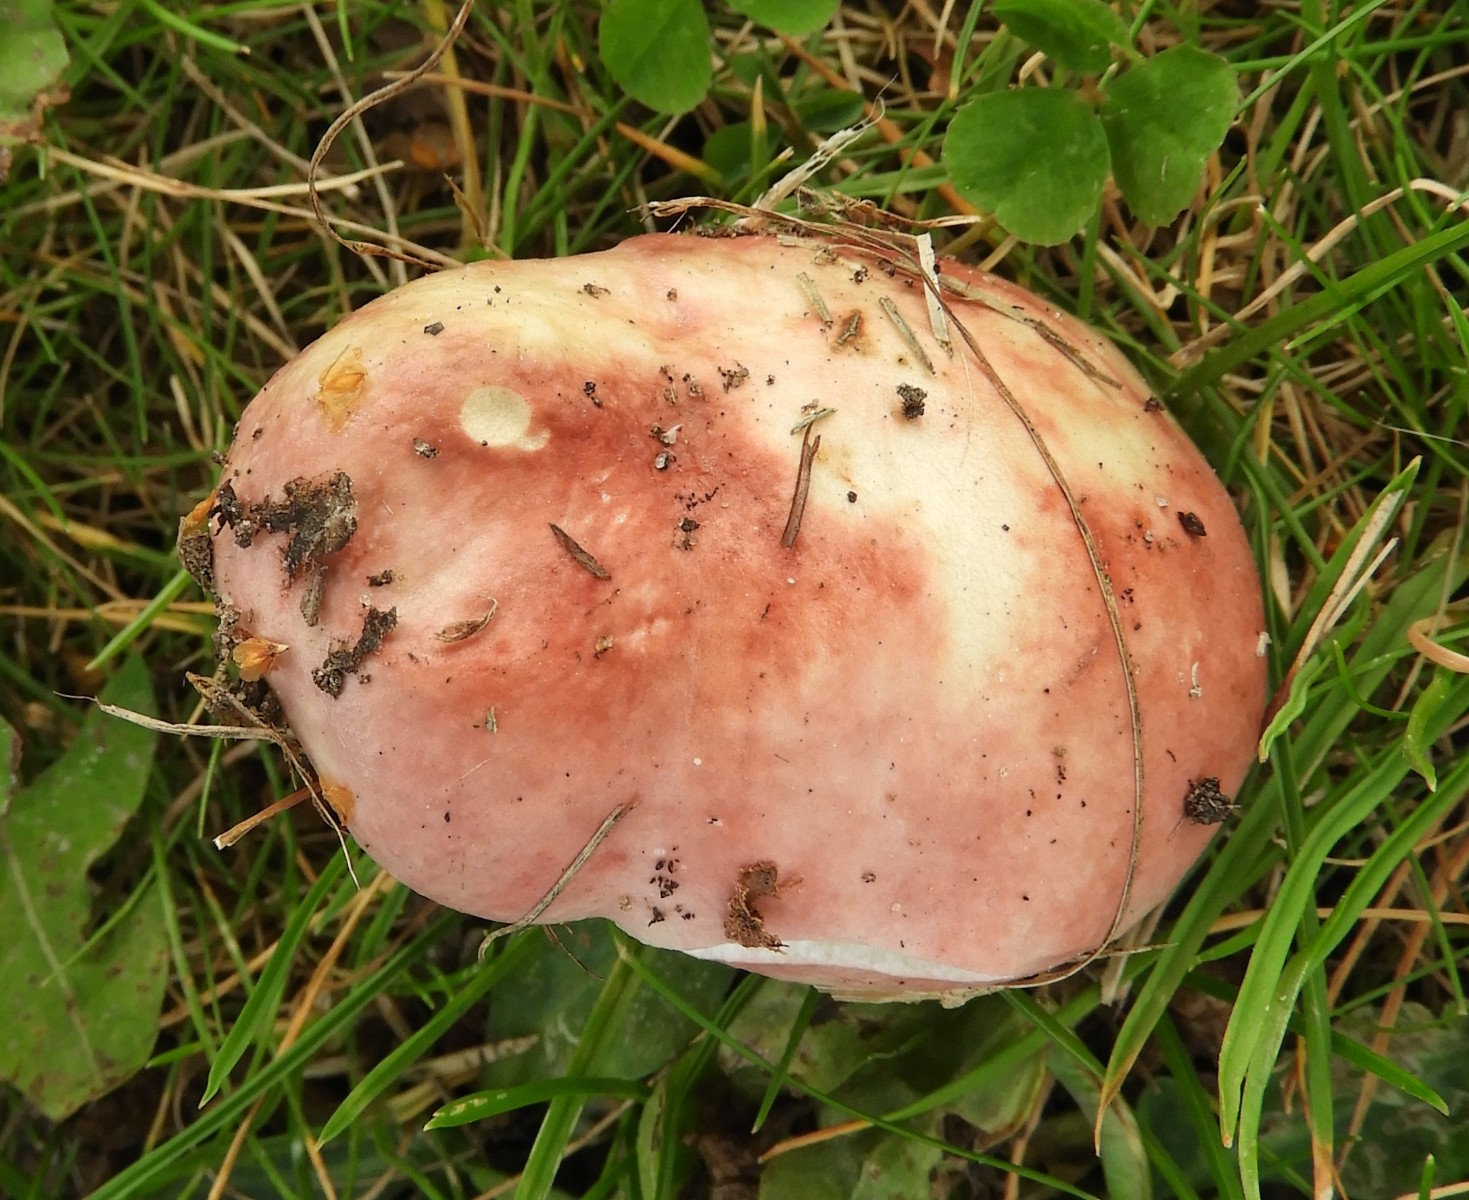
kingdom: Fungi
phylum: Basidiomycota
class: Agaricomycetes
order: Russulales
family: Russulaceae
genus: Russula
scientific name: Russula depallens
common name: falmende skørhat
